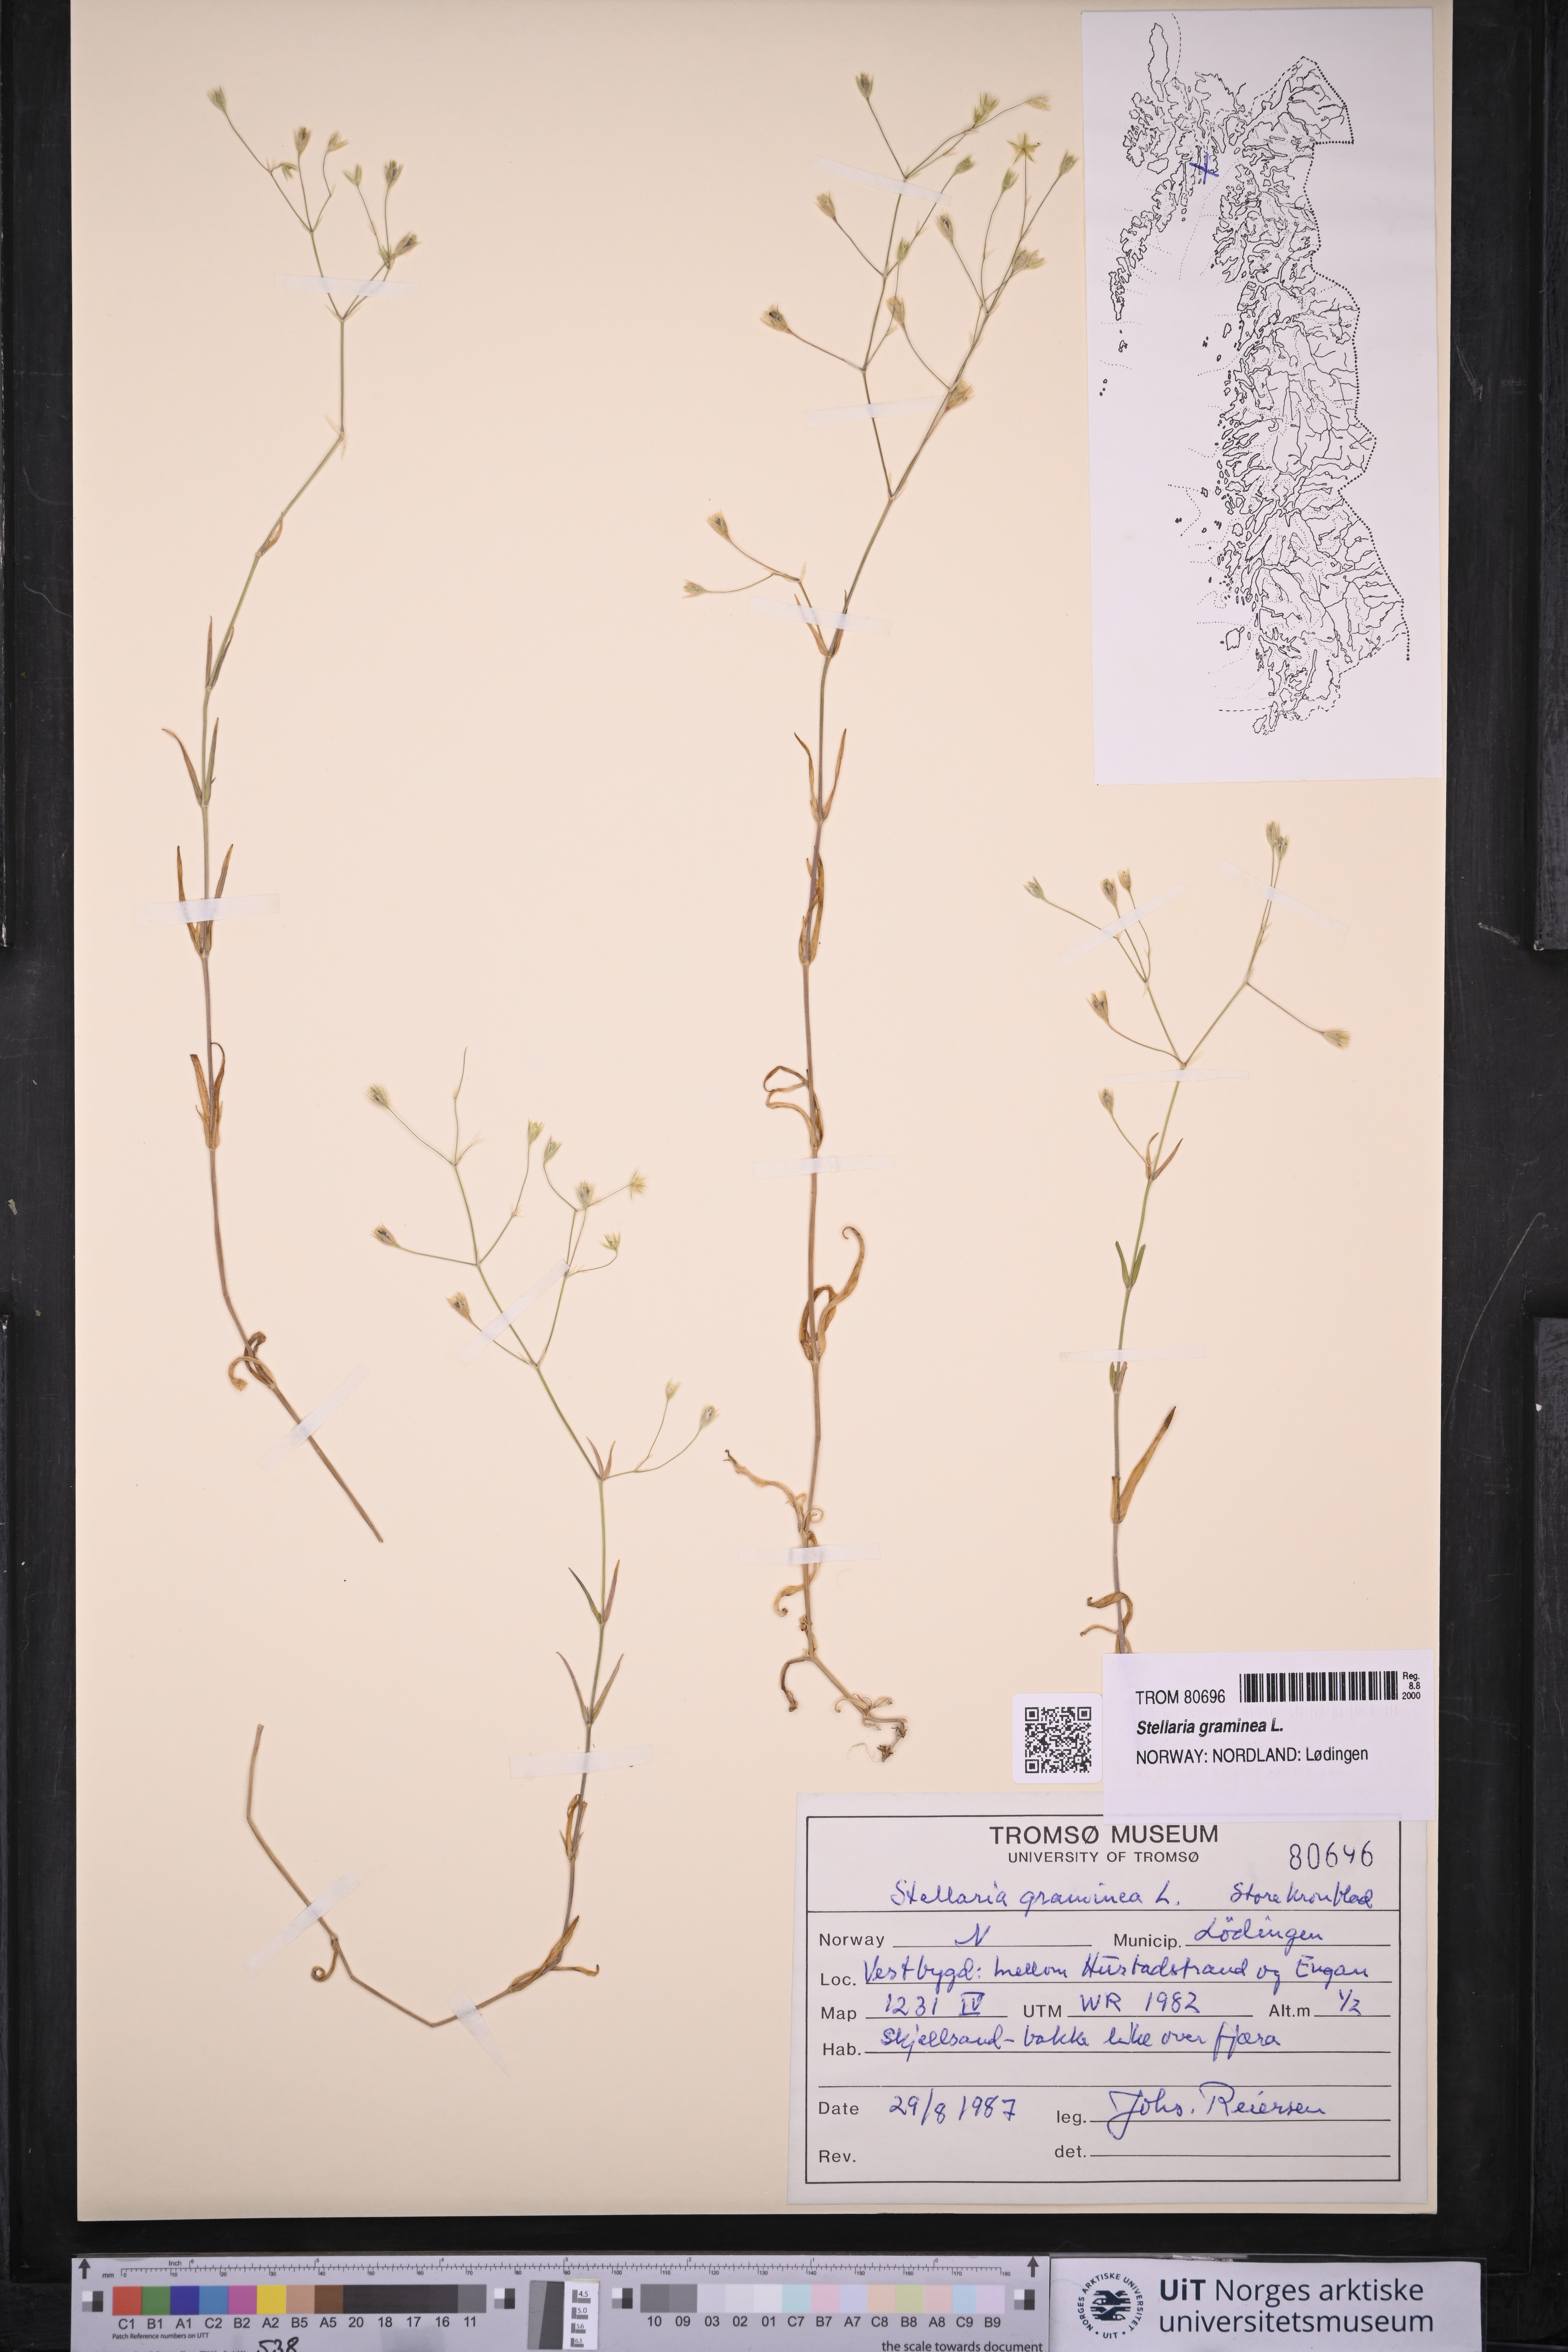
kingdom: Plantae
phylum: Tracheophyta
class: Magnoliopsida
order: Caryophyllales
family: Caryophyllaceae
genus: Stellaria
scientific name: Stellaria graminea
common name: Grass-like starwort
